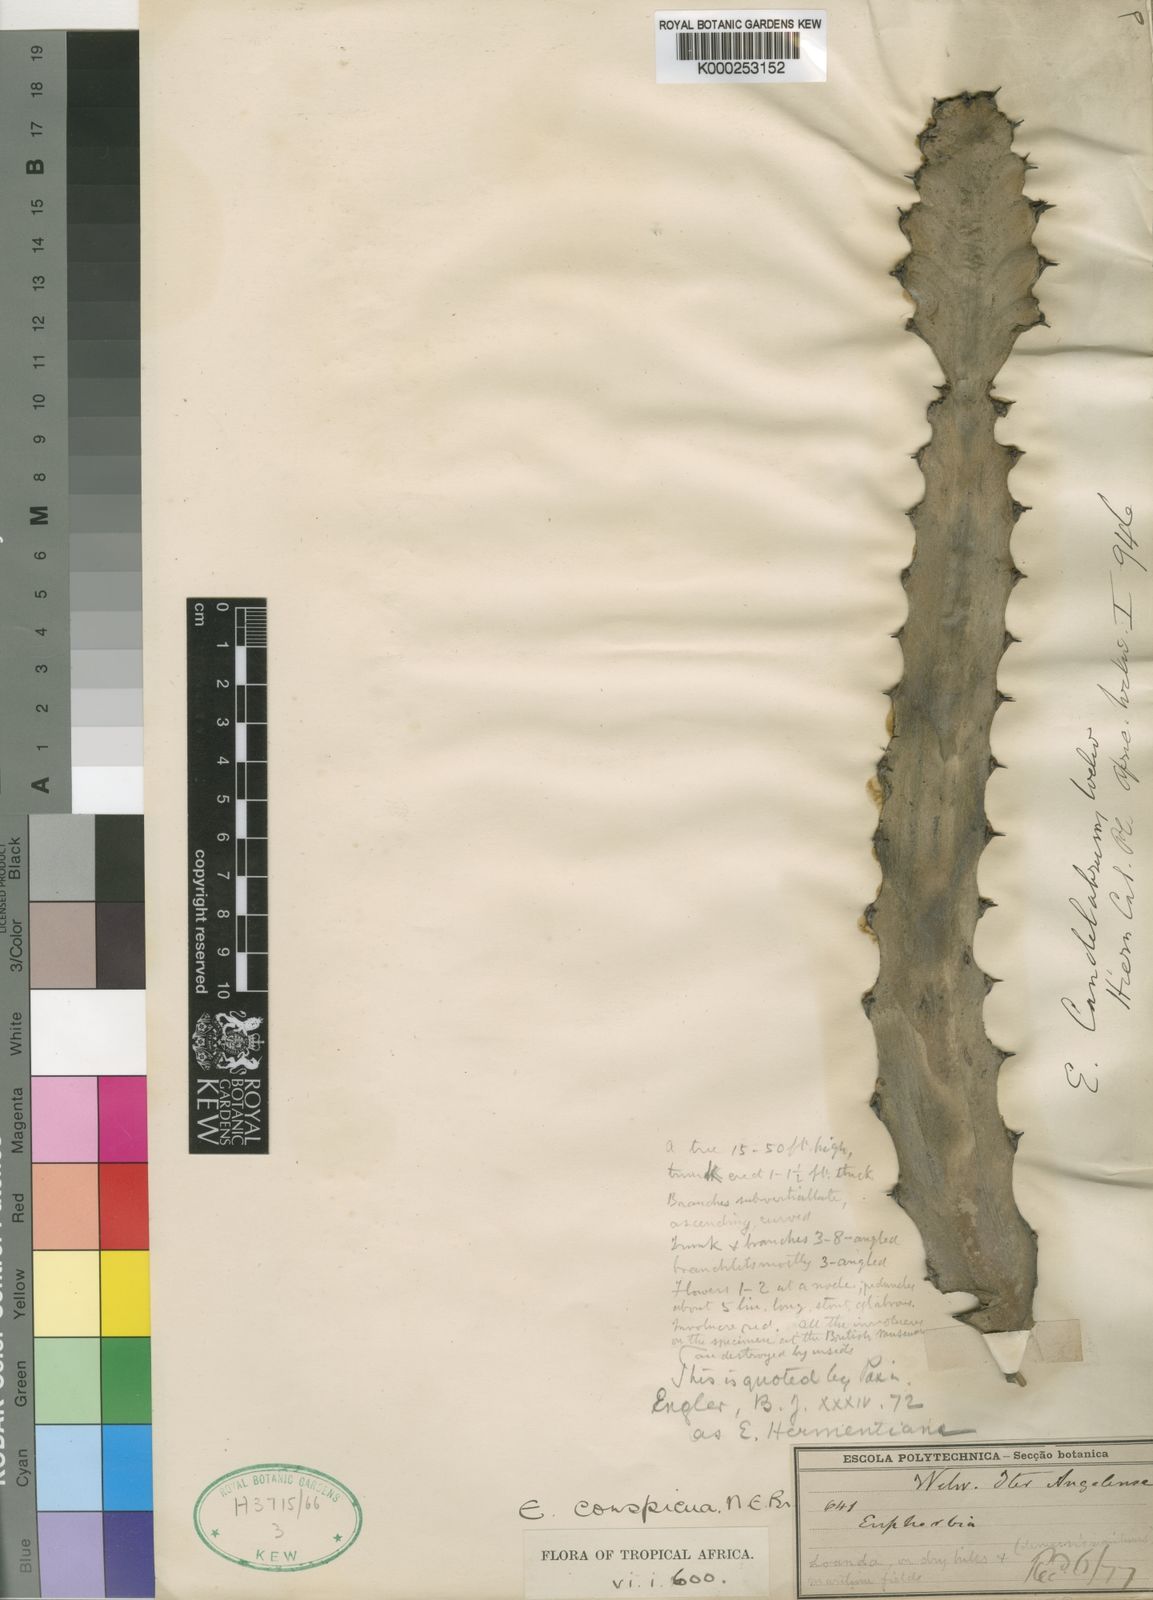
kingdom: Plantae
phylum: Tracheophyta
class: Magnoliopsida
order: Malpighiales
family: Euphorbiaceae
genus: Euphorbia
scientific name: Euphorbia candelabrum
